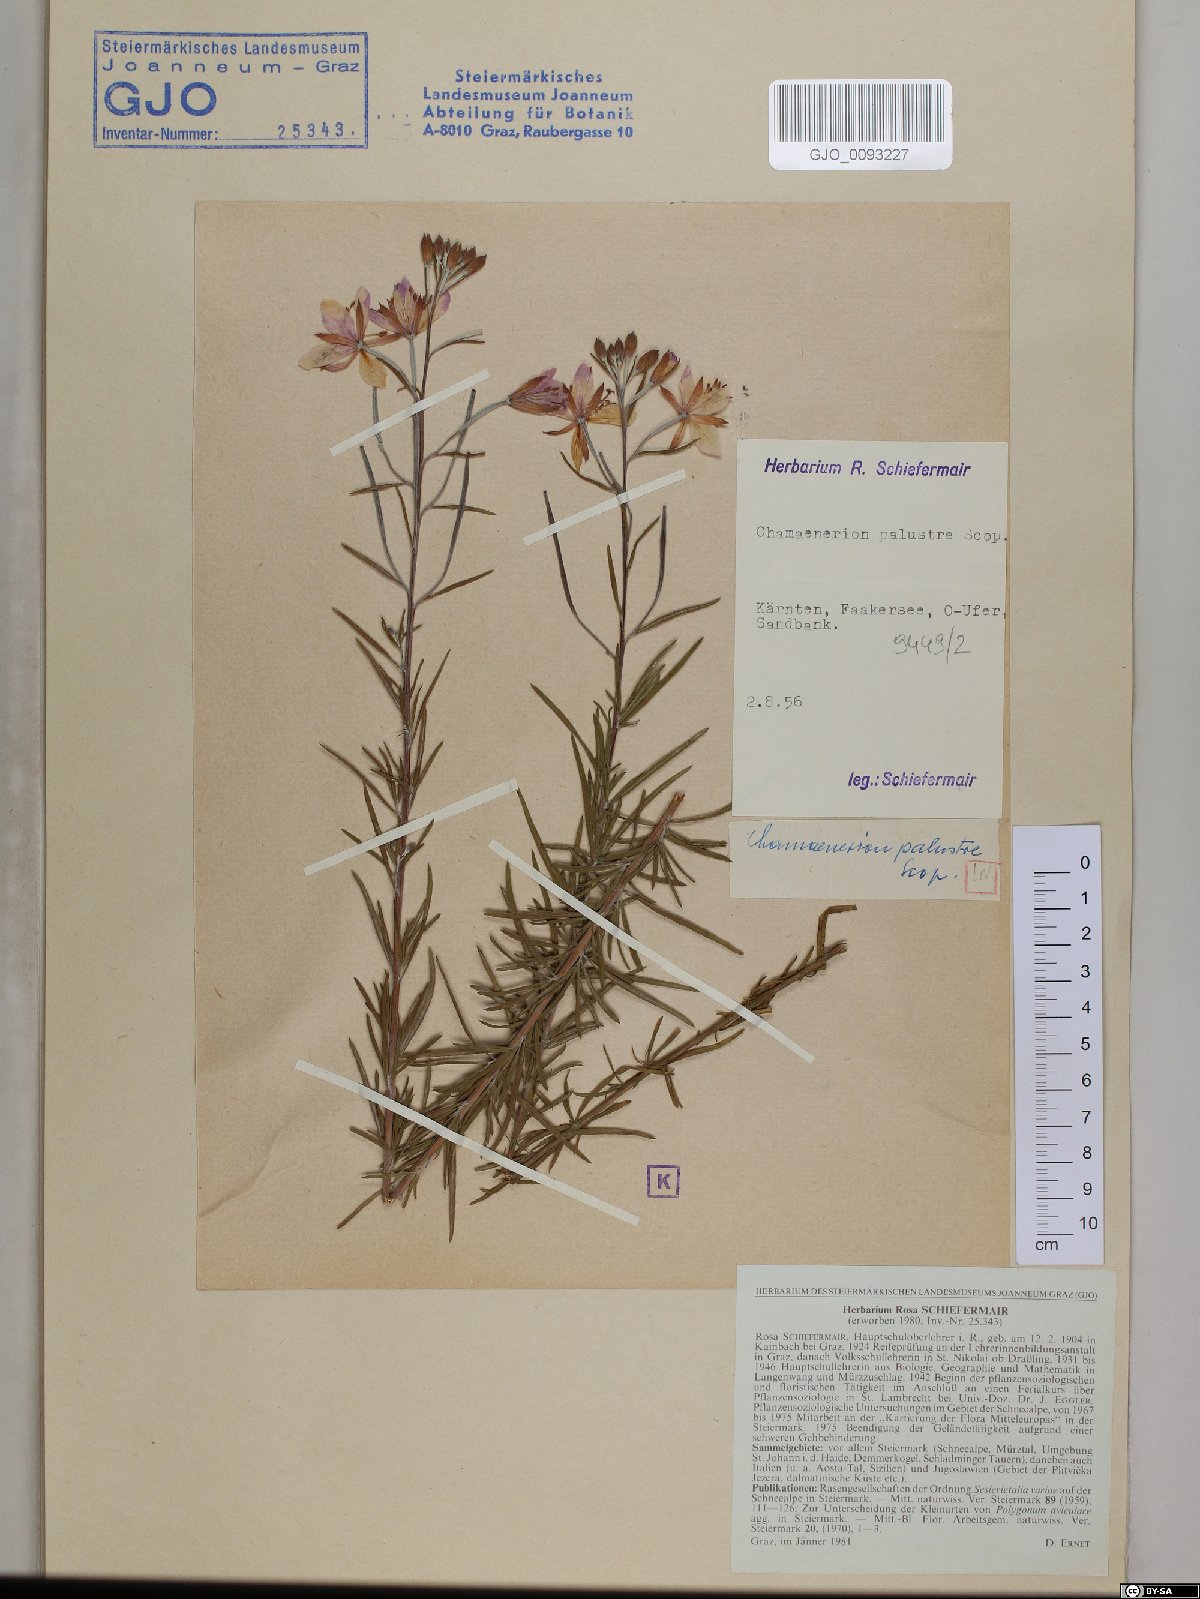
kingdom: Plantae
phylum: Tracheophyta
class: Magnoliopsida
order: Myrtales
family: Onagraceae
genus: Chamaenerion
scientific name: Chamaenerion dodonaei
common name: Rosemary-leaved willowherb
